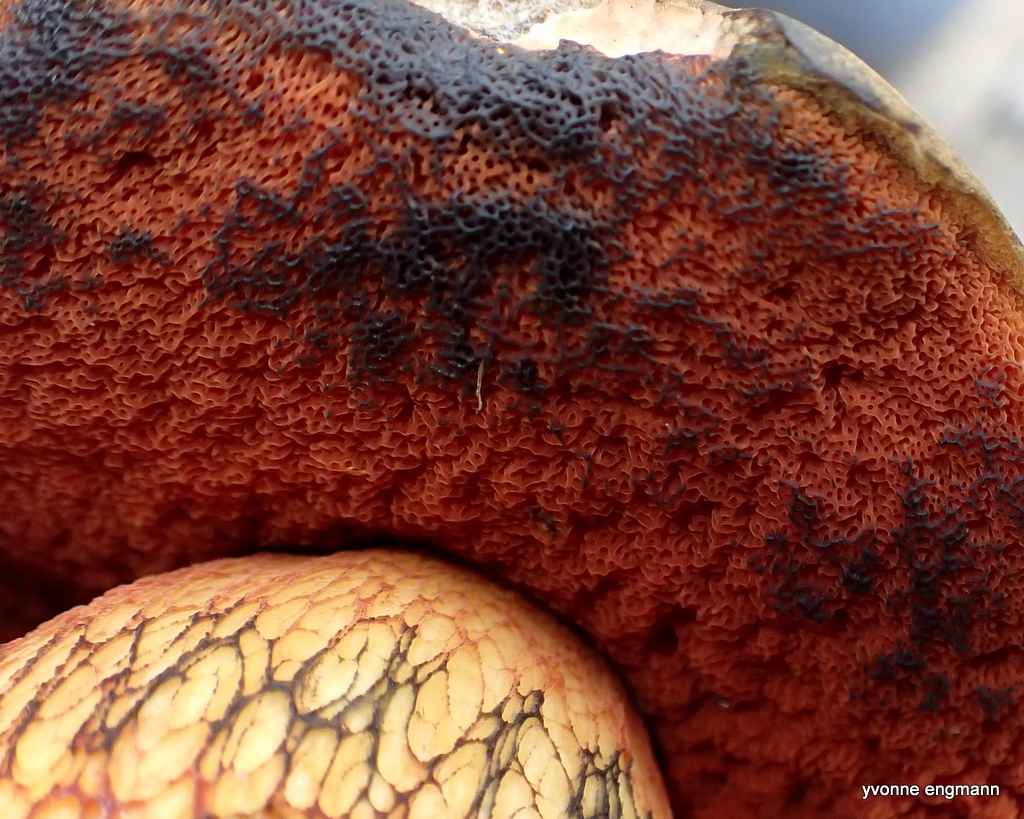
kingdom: Fungi
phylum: Basidiomycota
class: Agaricomycetes
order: Boletales
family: Boletaceae
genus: Suillellus
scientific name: Suillellus luridus
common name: netstokket indigorørhat
